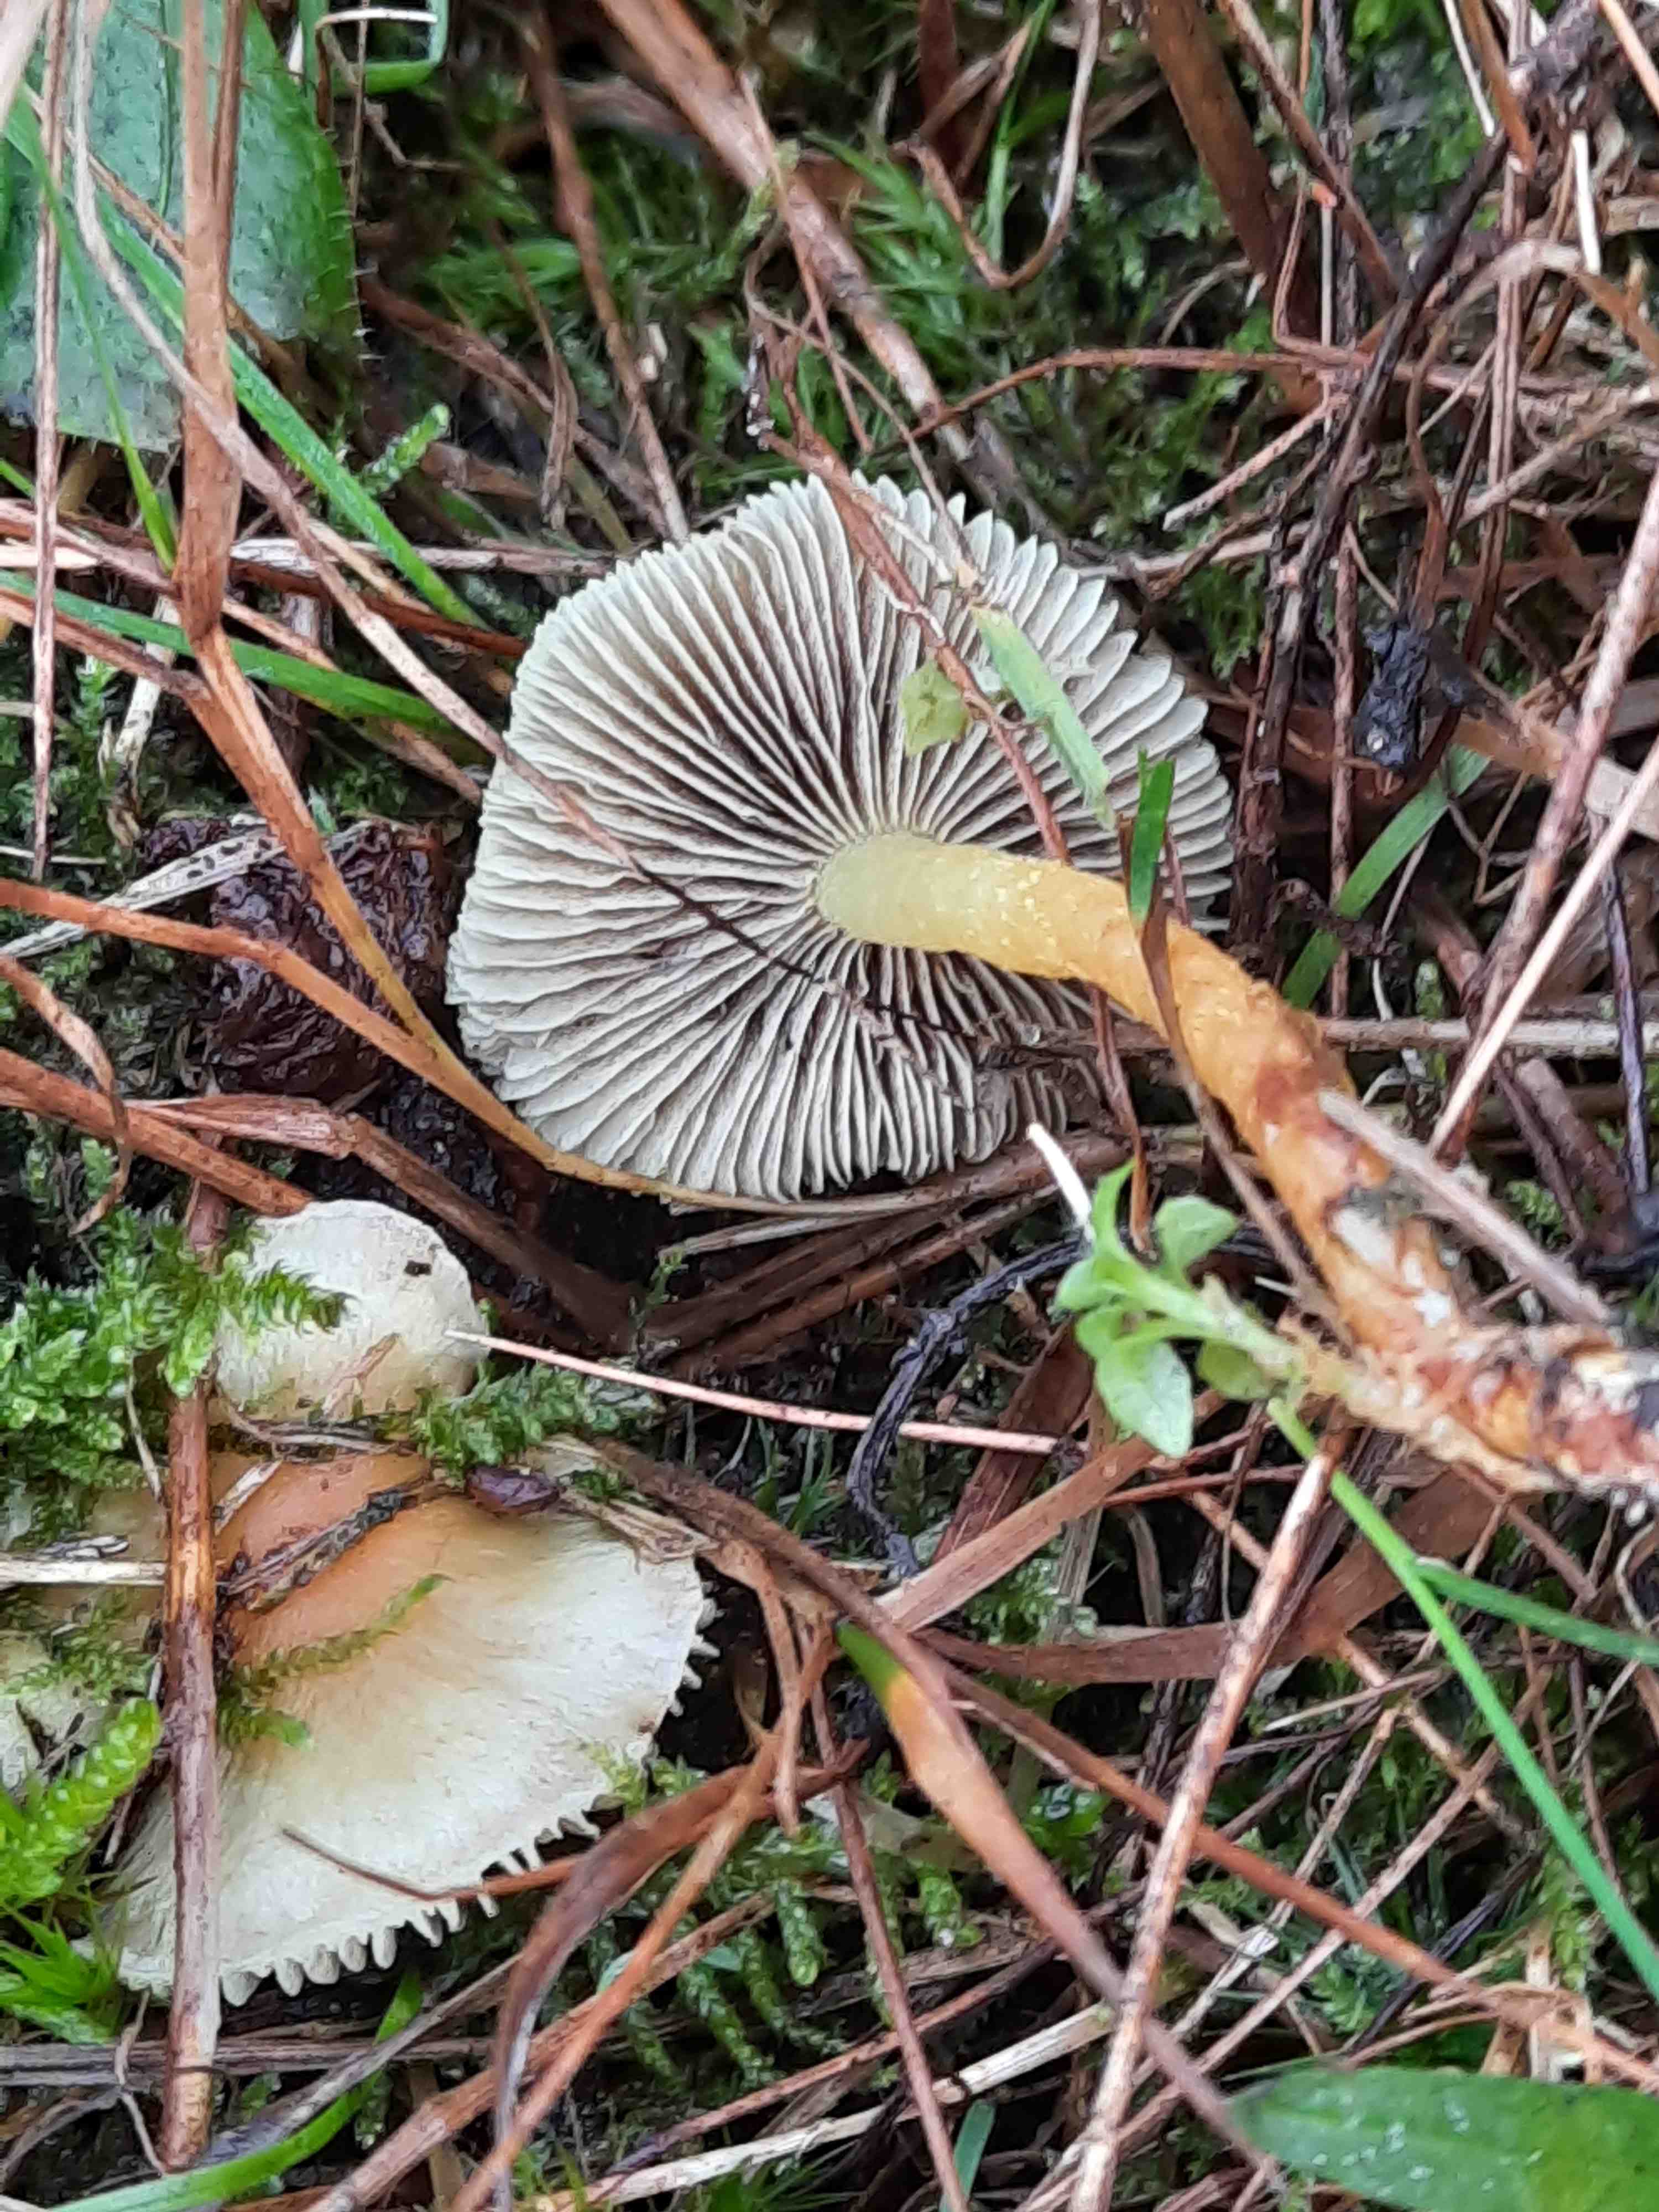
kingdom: Fungi
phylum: Basidiomycota
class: Agaricomycetes
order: Agaricales
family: Strophariaceae
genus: Hypholoma
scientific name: Hypholoma capnoides
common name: gran-svovlhat
